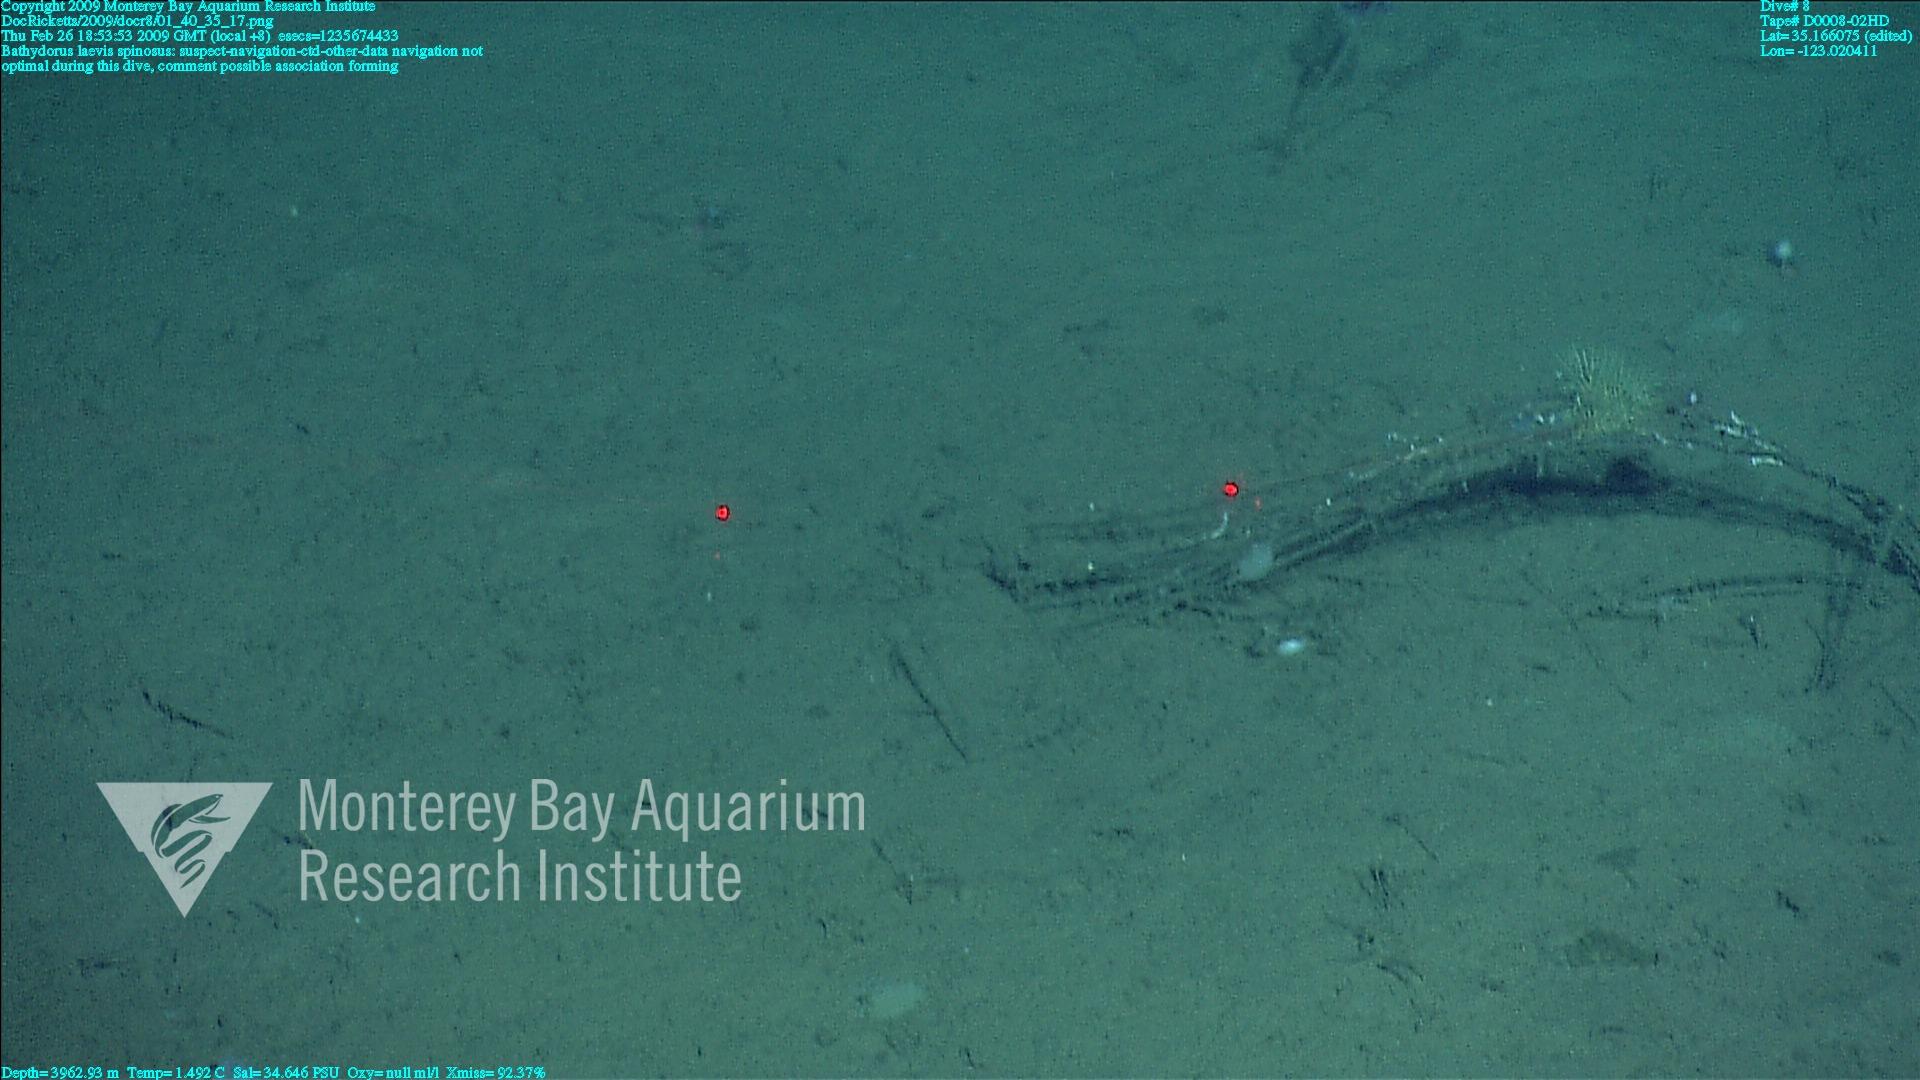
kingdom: Animalia
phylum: Porifera
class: Hexactinellida
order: Lyssacinosida
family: Rossellidae
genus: Bathydorus
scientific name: Bathydorus spinosus
